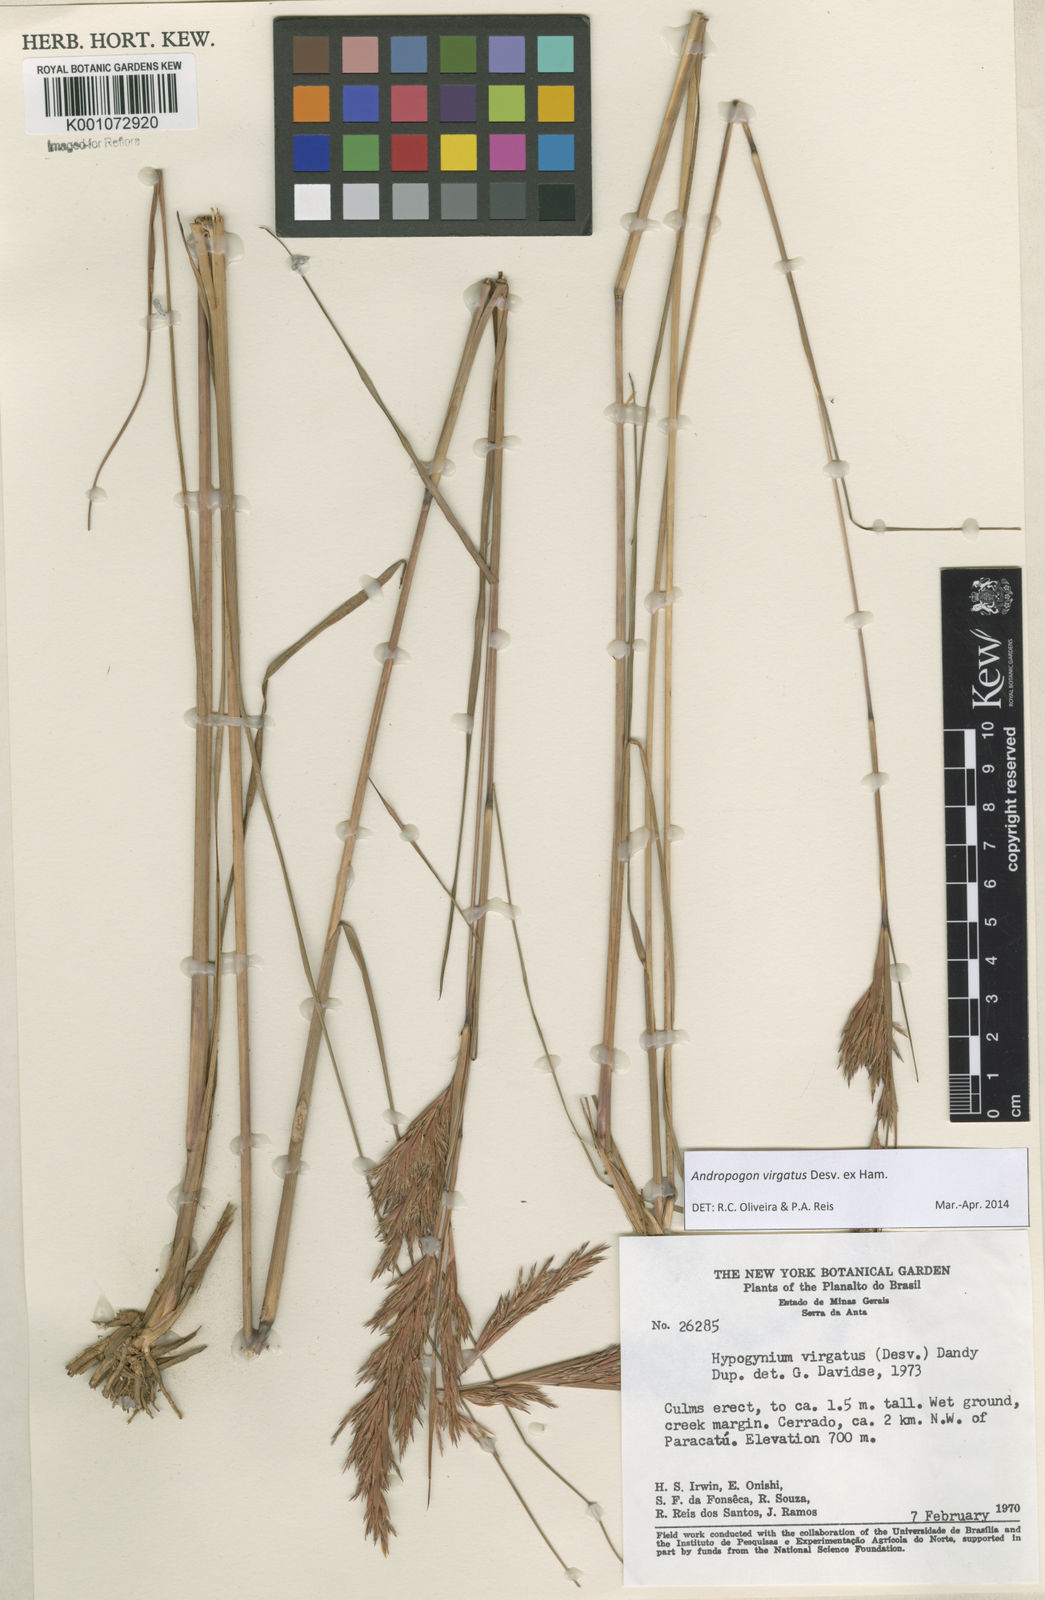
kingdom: Plantae
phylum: Tracheophyta
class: Liliopsida
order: Poales
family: Poaceae
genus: Andropogon
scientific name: Andropogon virgatus
